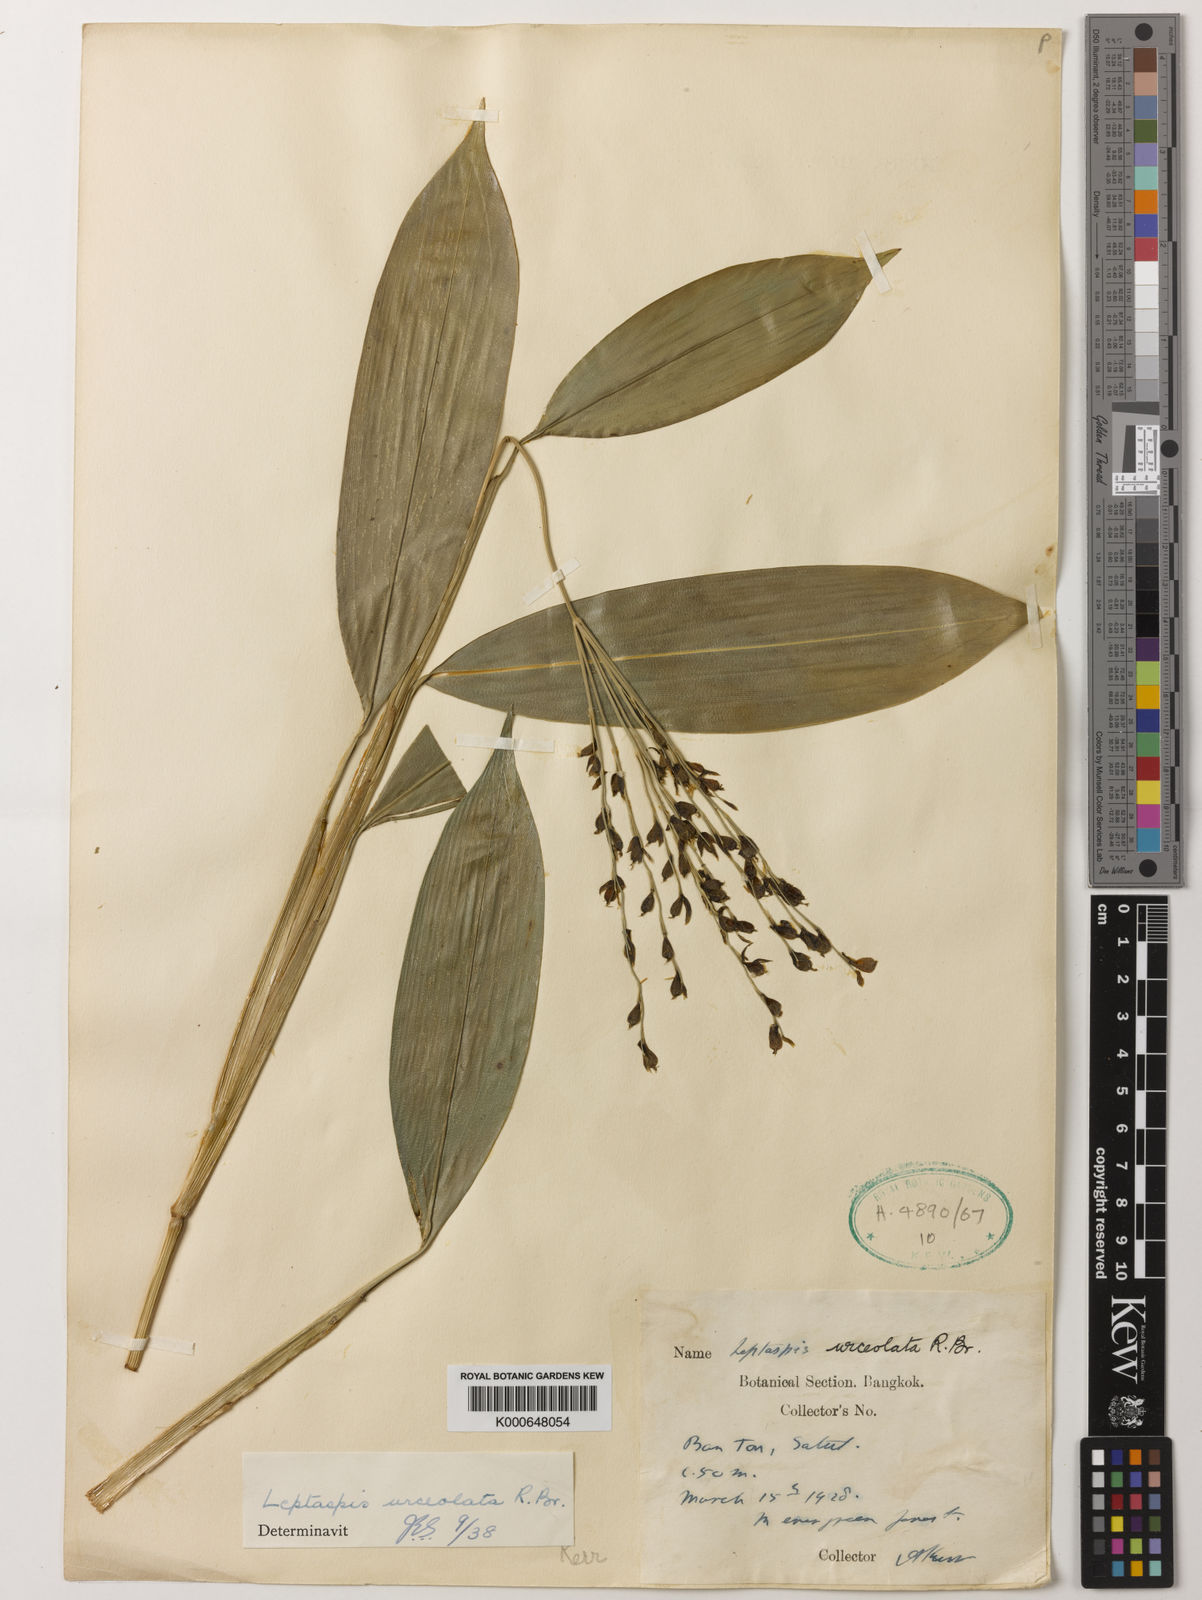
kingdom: Plantae
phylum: Tracheophyta
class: Liliopsida
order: Poales
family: Poaceae
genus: Scrotochloa
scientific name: Scrotochloa urceolata
